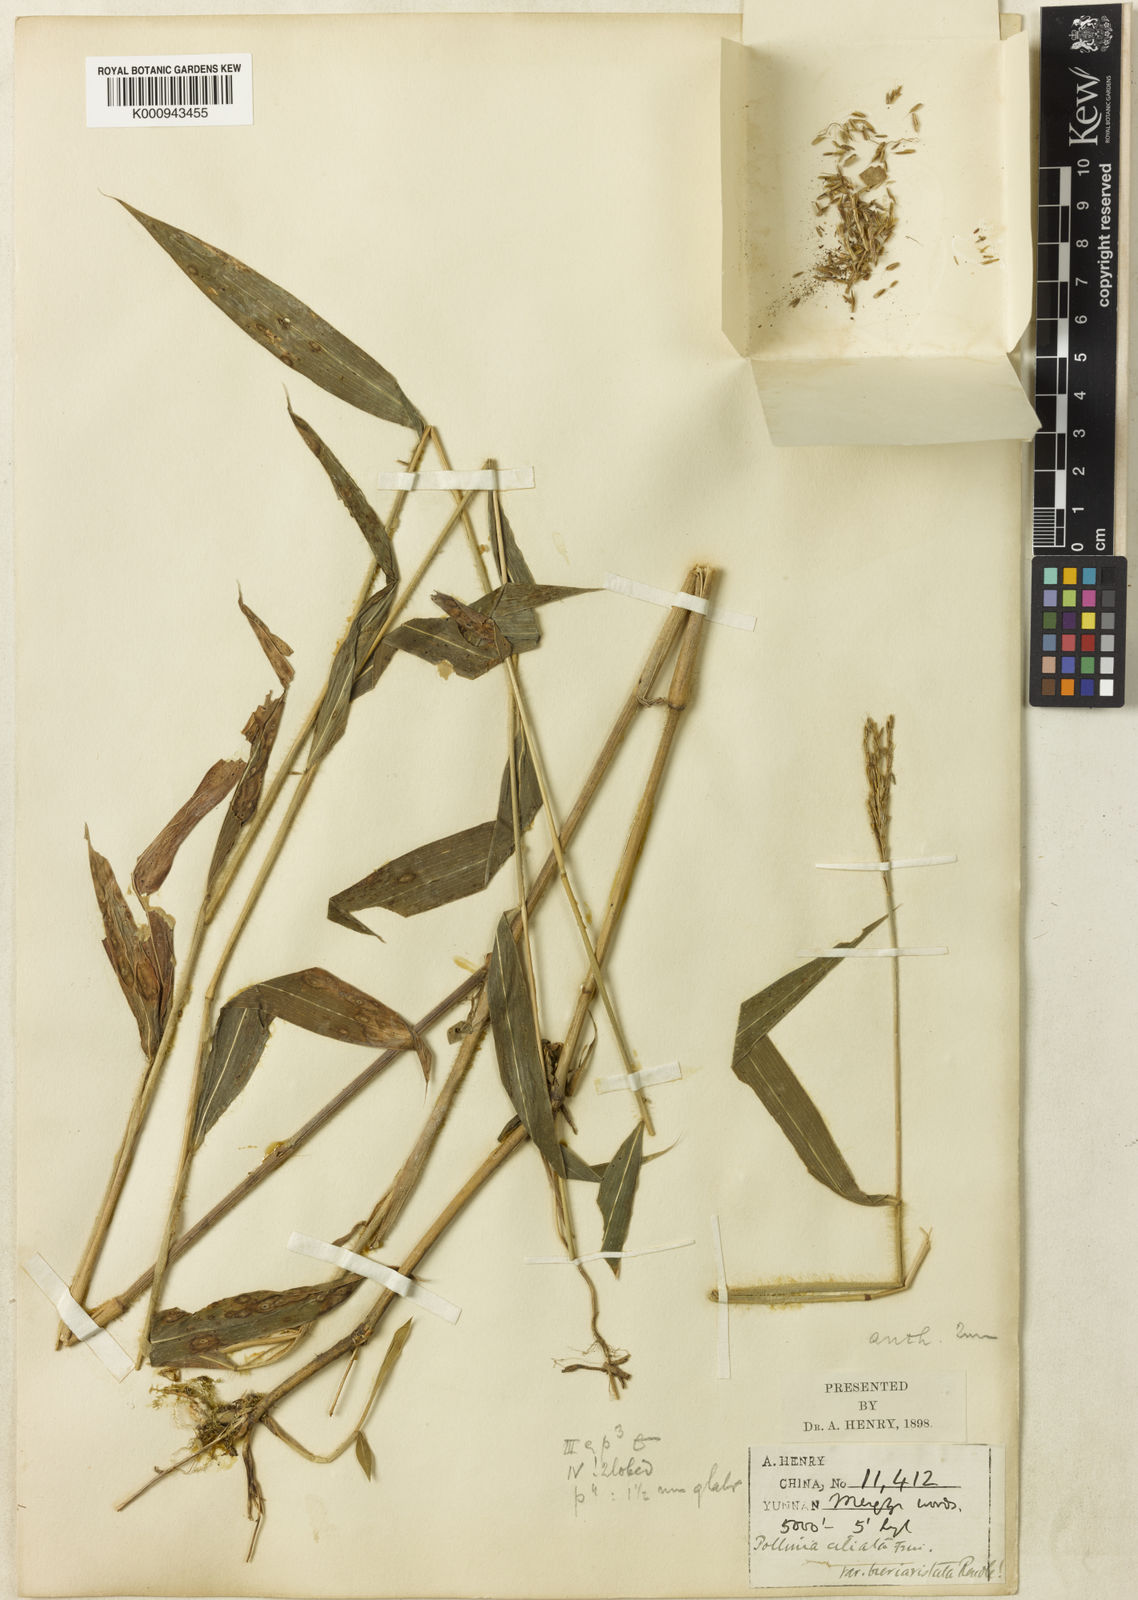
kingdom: Plantae
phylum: Tracheophyta
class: Liliopsida
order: Poales
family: Poaceae
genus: Microstegium
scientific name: Microstegium fasciculatum
